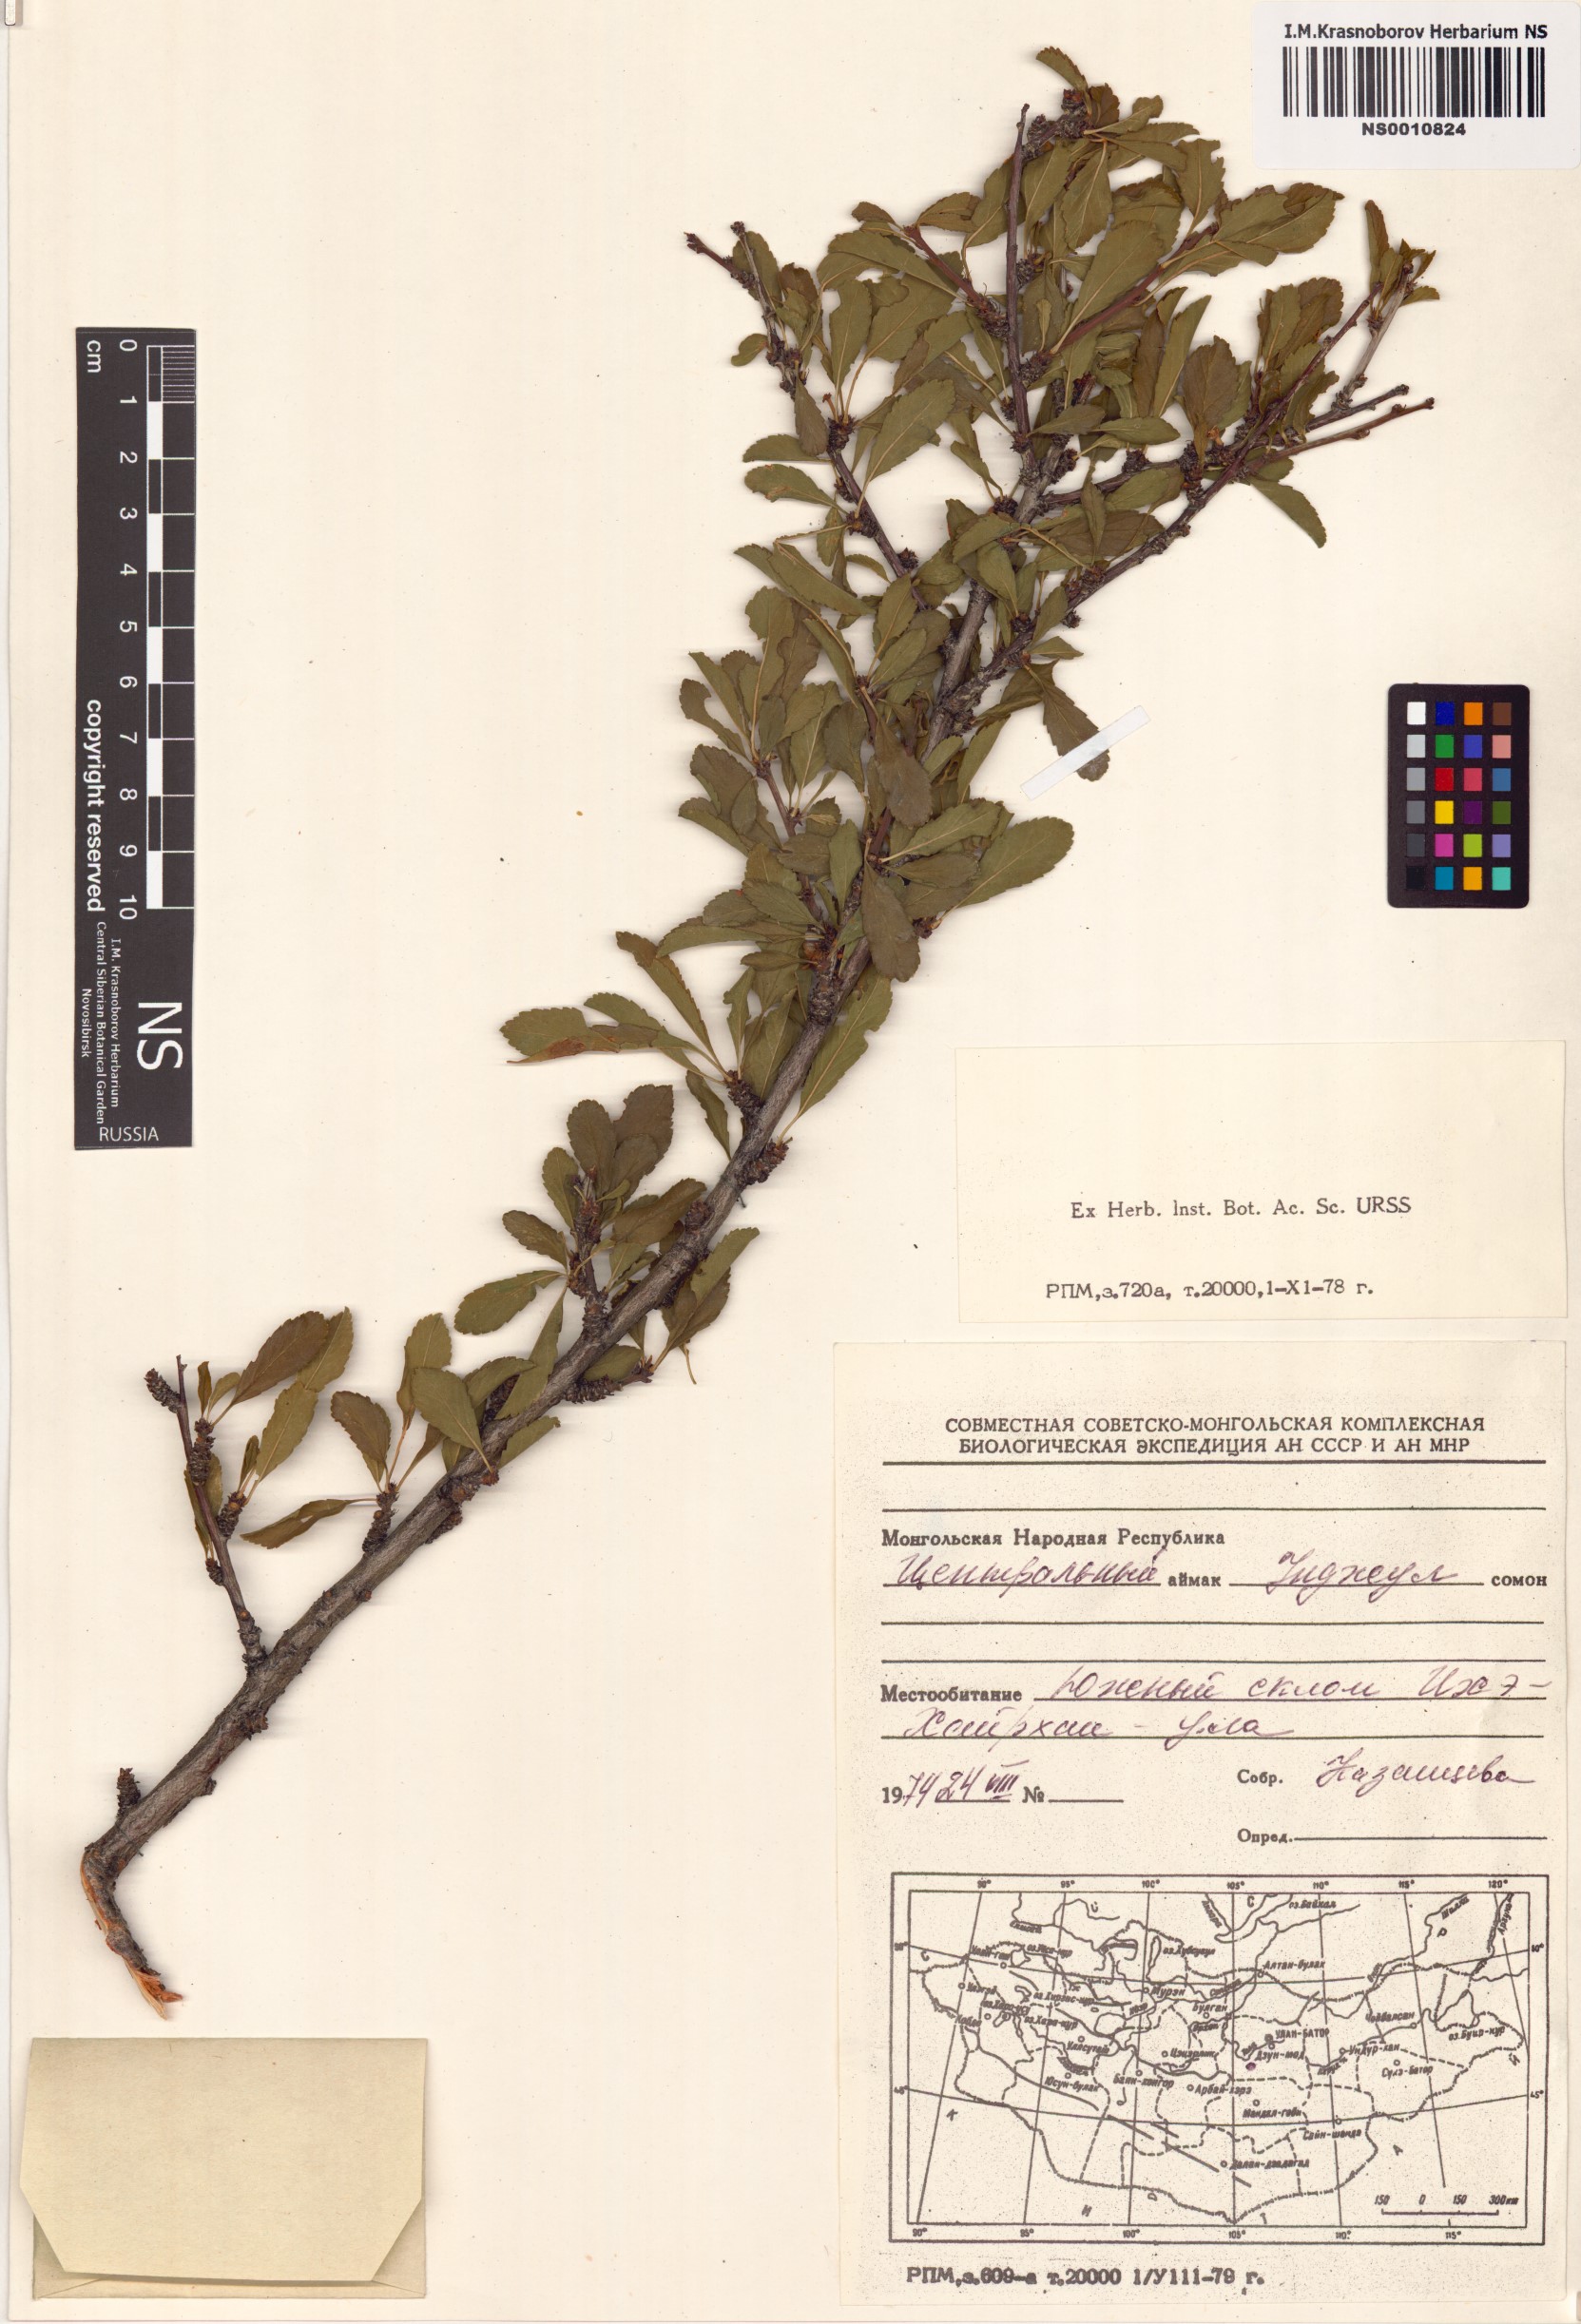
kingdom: Plantae
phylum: Tracheophyta
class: Magnoliopsida
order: Rosales
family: Rosaceae
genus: Prunus
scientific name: Prunus pedunculata
